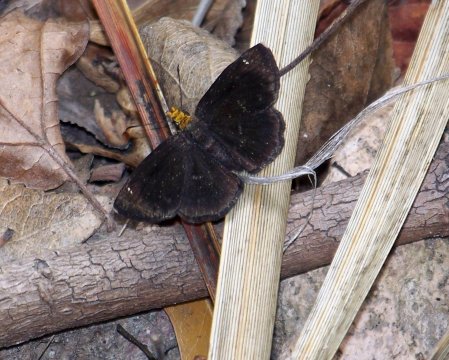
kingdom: Animalia
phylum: Arthropoda
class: Insecta
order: Lepidoptera
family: Hesperiidae
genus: Staphylus
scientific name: Staphylus ceos
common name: Golden-headed Scallopwing
